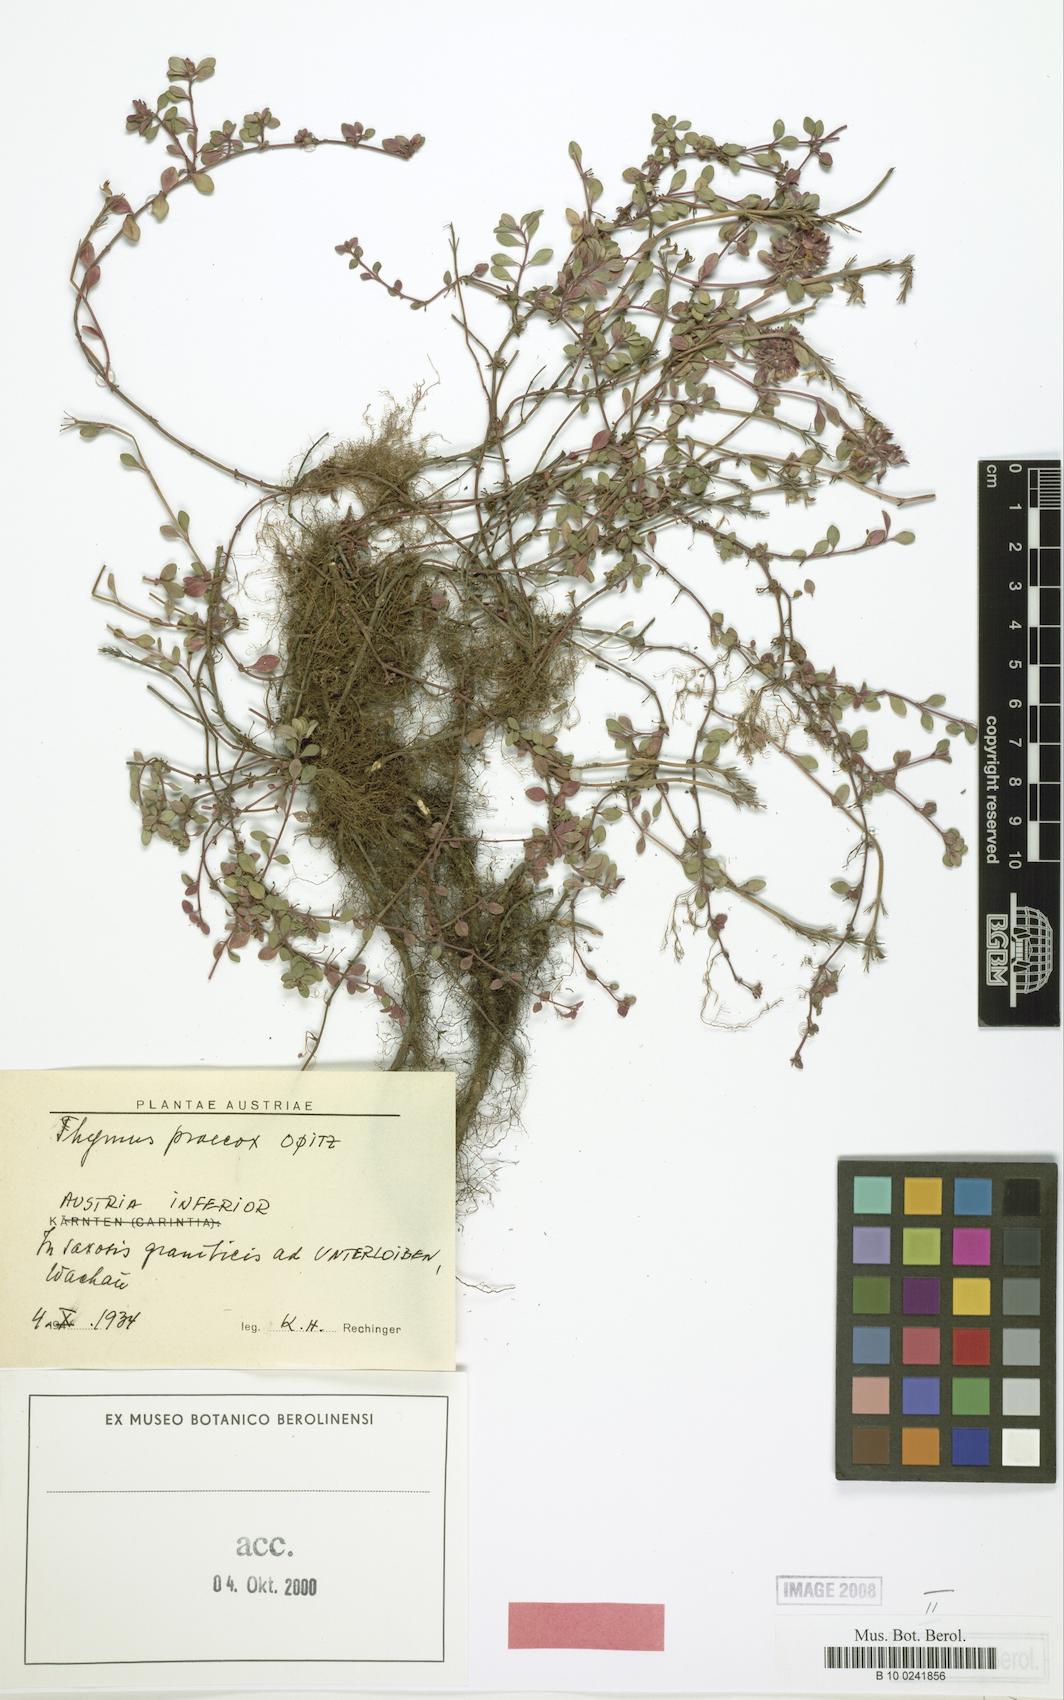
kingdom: Plantae
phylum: Tracheophyta
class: Magnoliopsida
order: Lamiales
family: Lamiaceae
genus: Thymus
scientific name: Thymus praecox
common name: Wild thyme
